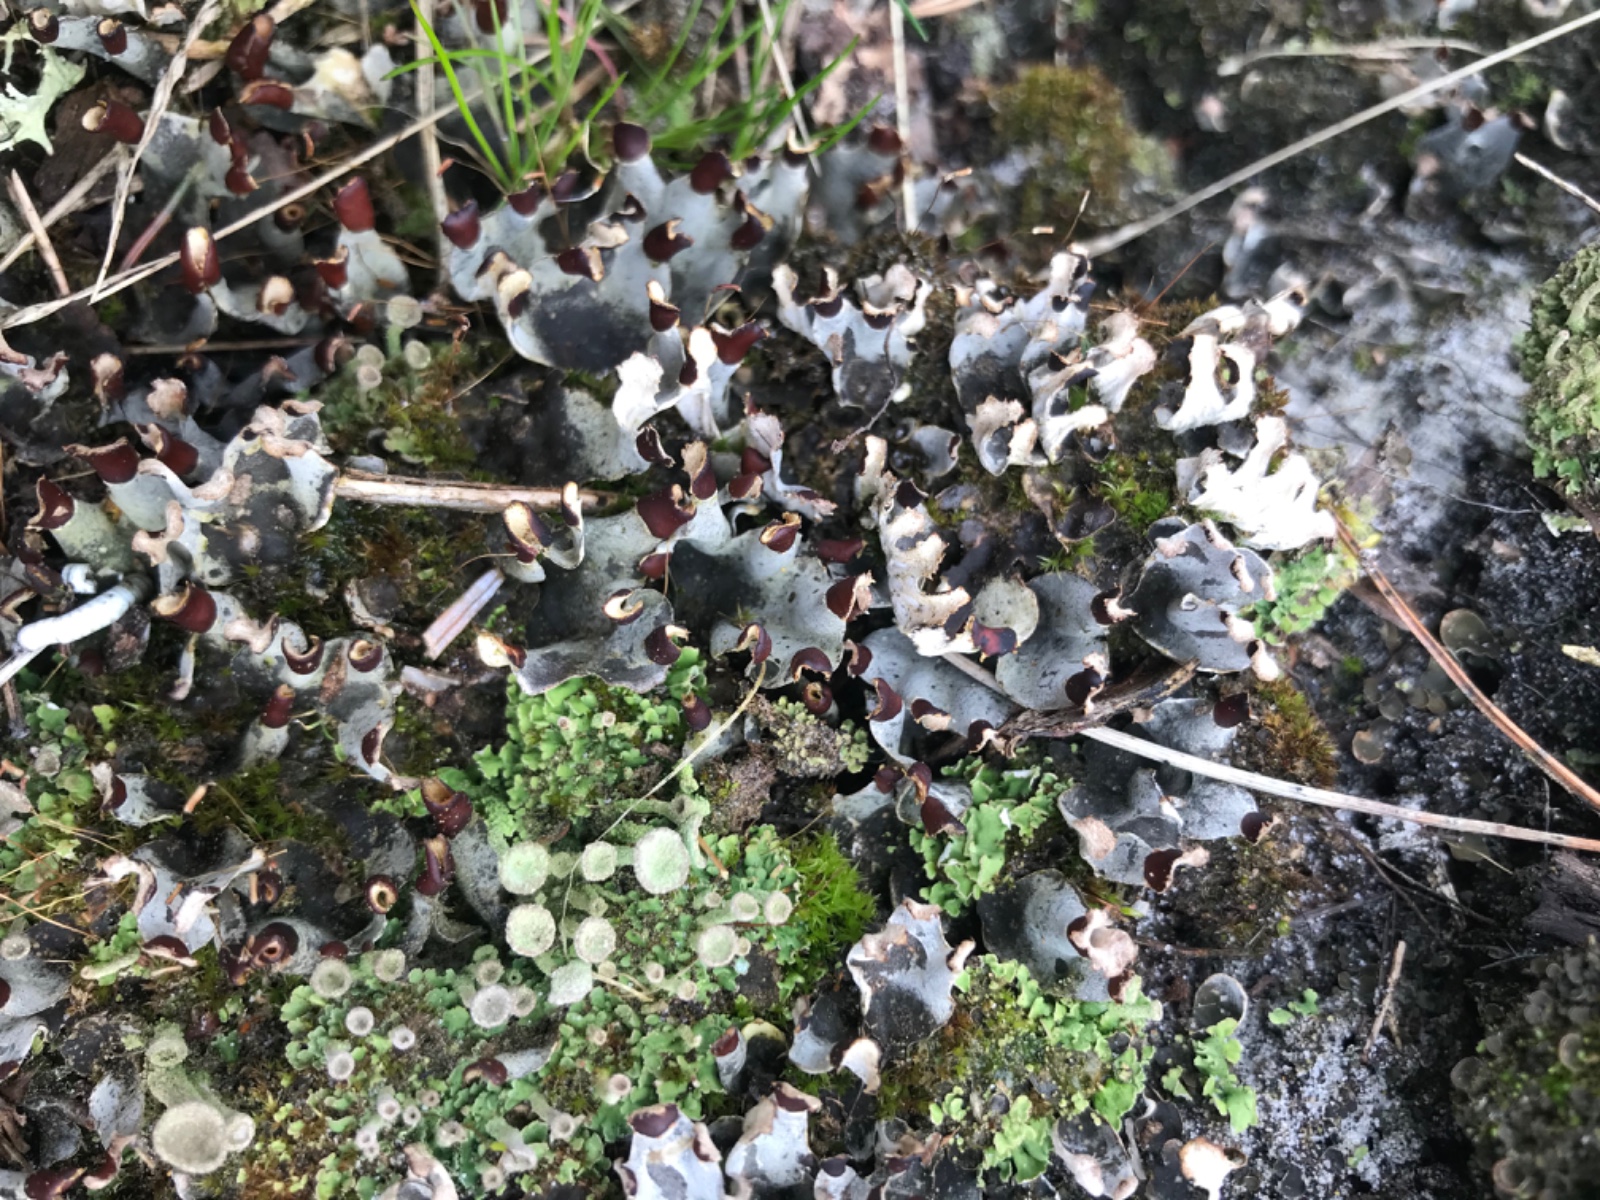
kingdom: Fungi
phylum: Ascomycota
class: Lecanoromycetes
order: Peltigerales
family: Peltigeraceae
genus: Peltigera
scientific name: Peltigera didactyla
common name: liden skjoldlav
